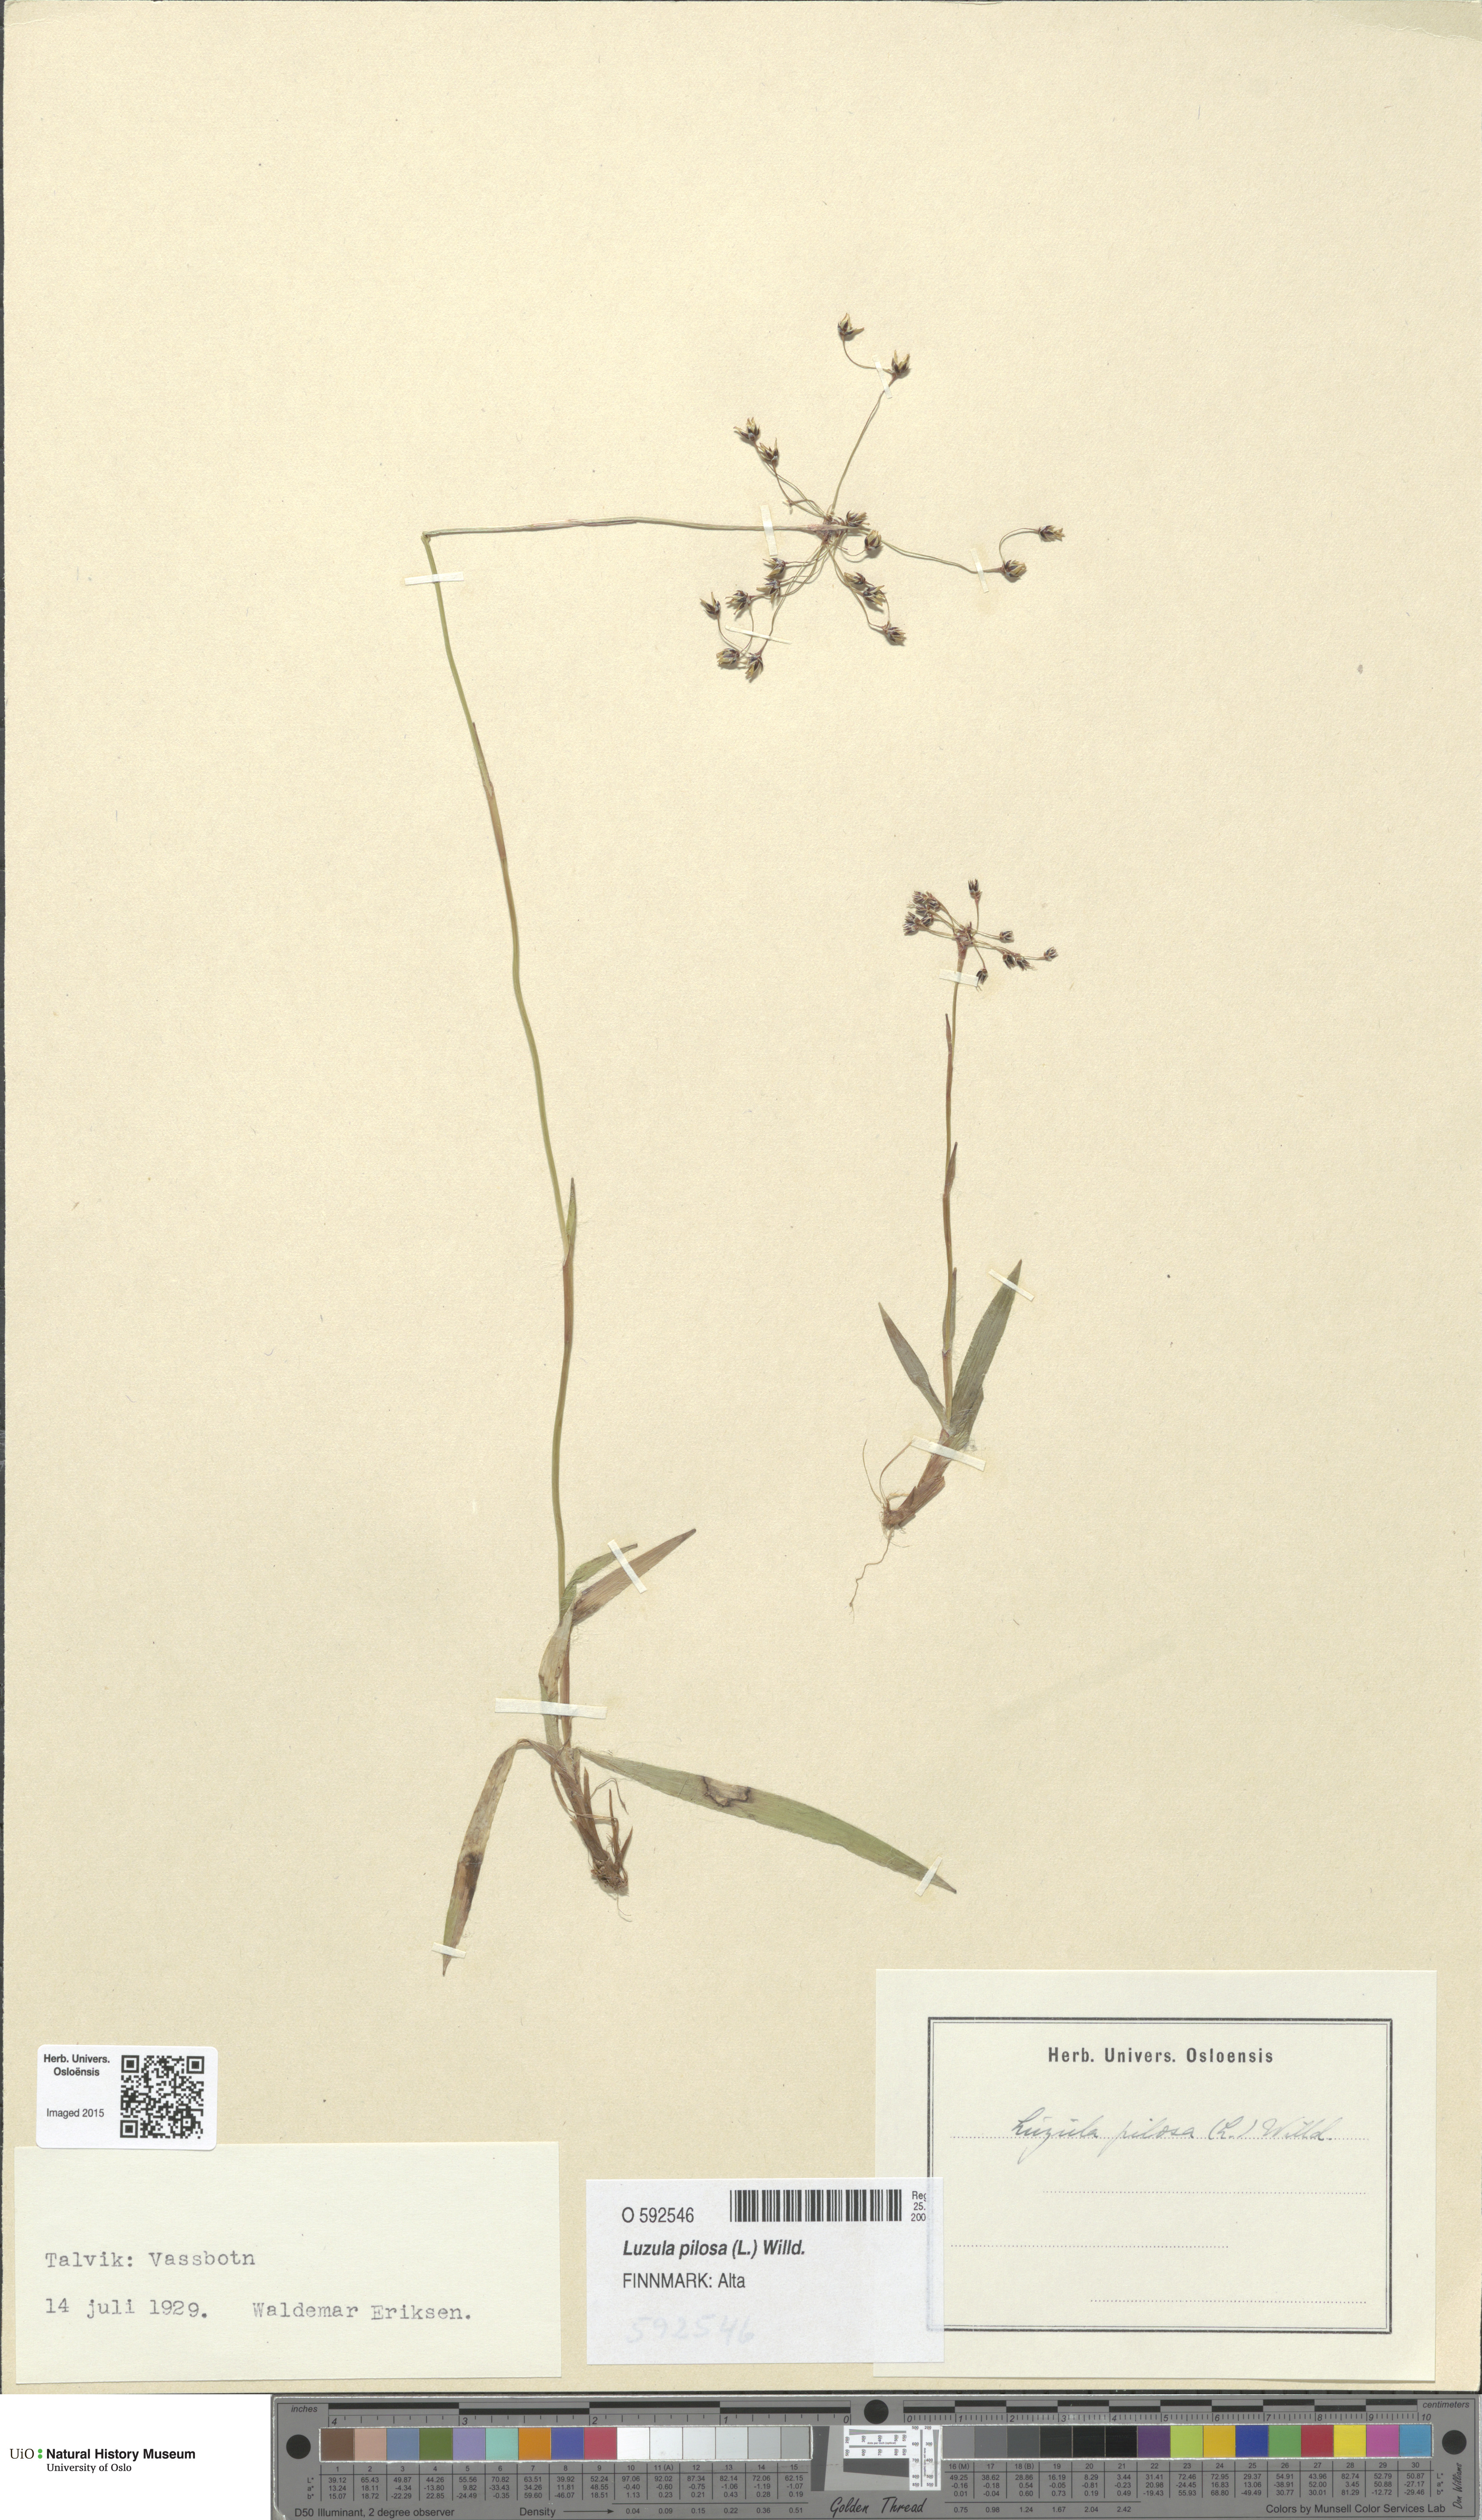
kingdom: Plantae
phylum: Tracheophyta
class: Liliopsida
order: Poales
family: Juncaceae
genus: Luzula
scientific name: Luzula pilosa
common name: Hairy wood-rush
